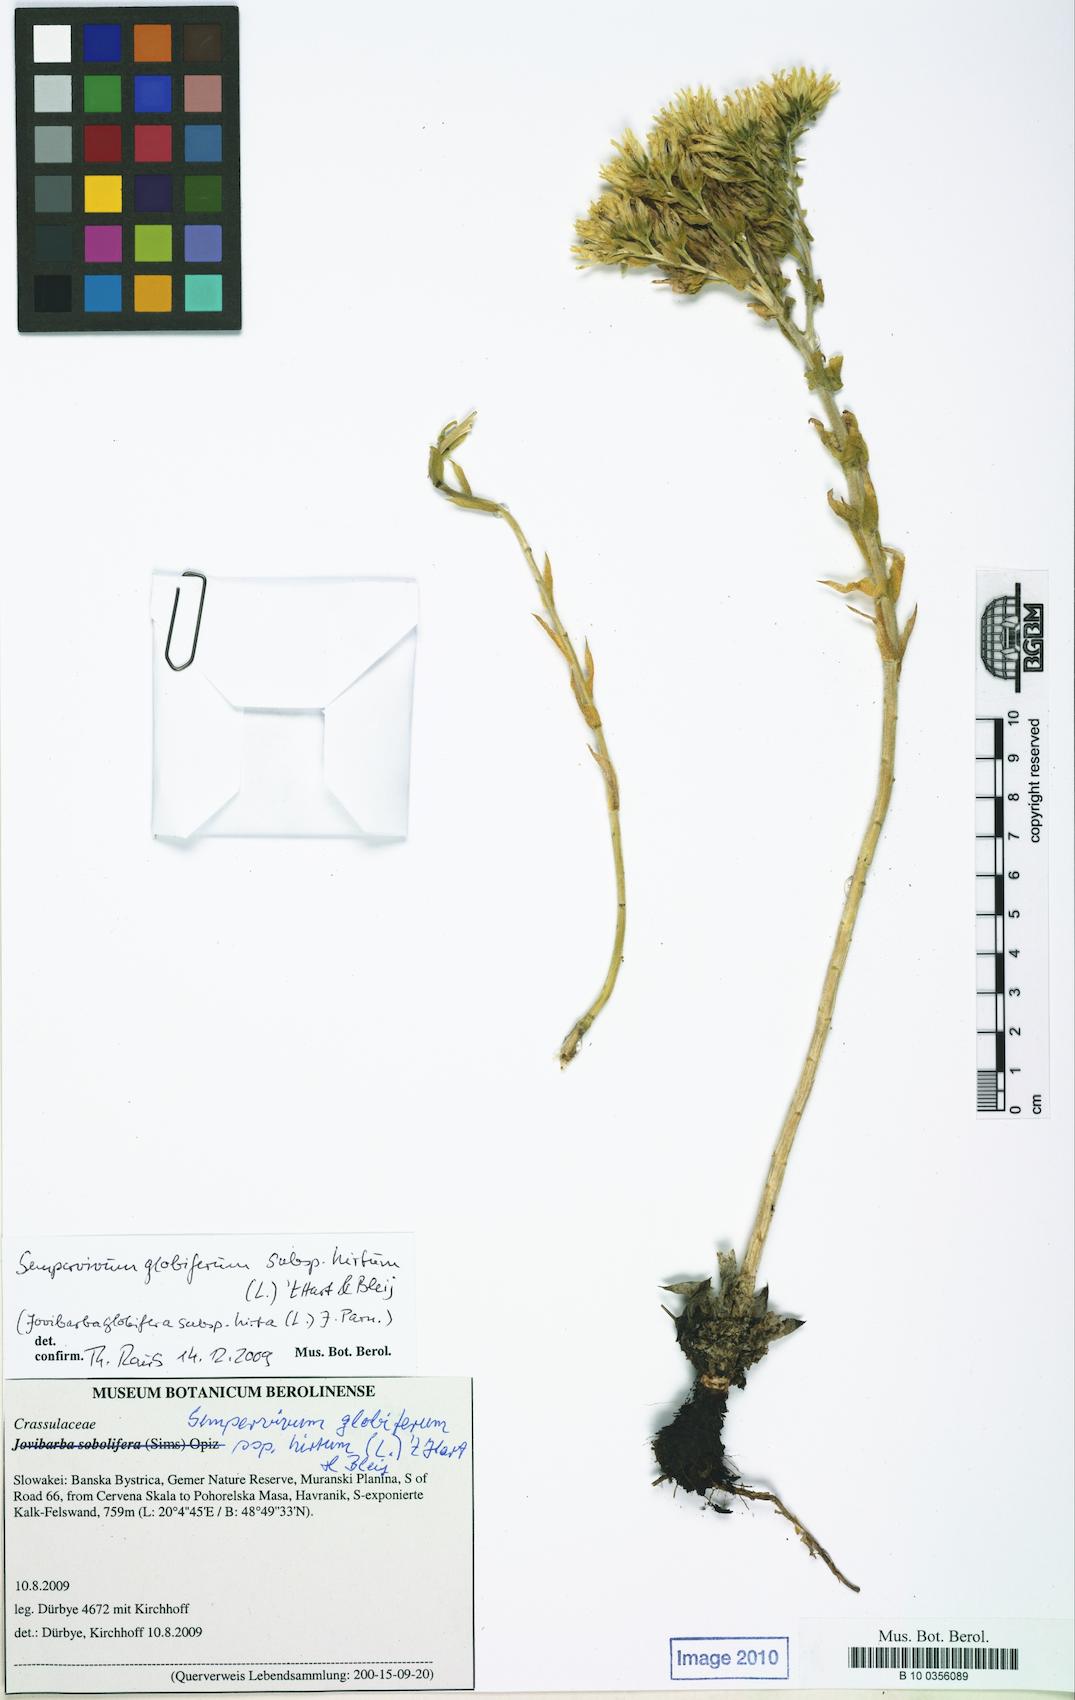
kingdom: Plantae
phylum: Tracheophyta
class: Magnoliopsida
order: Saxifragales
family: Crassulaceae
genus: Sempervivum
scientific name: Sempervivum globiferum
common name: Rolling hen-and-chicks
